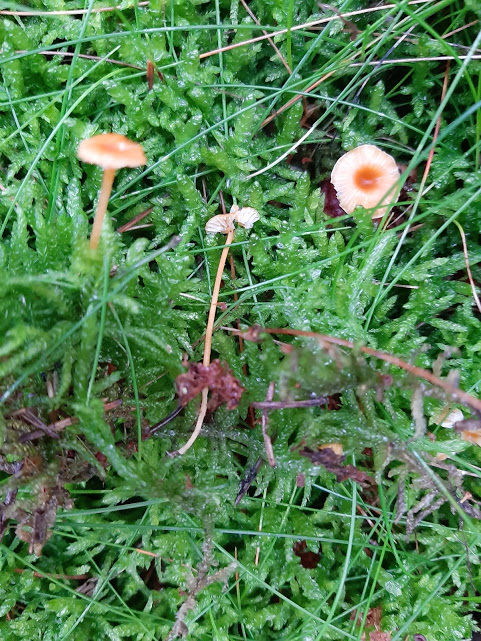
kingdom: Fungi
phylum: Basidiomycota
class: Agaricomycetes
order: Hymenochaetales
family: Rickenellaceae
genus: Rickenella
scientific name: Rickenella fibula
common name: orange mosnavlehat
